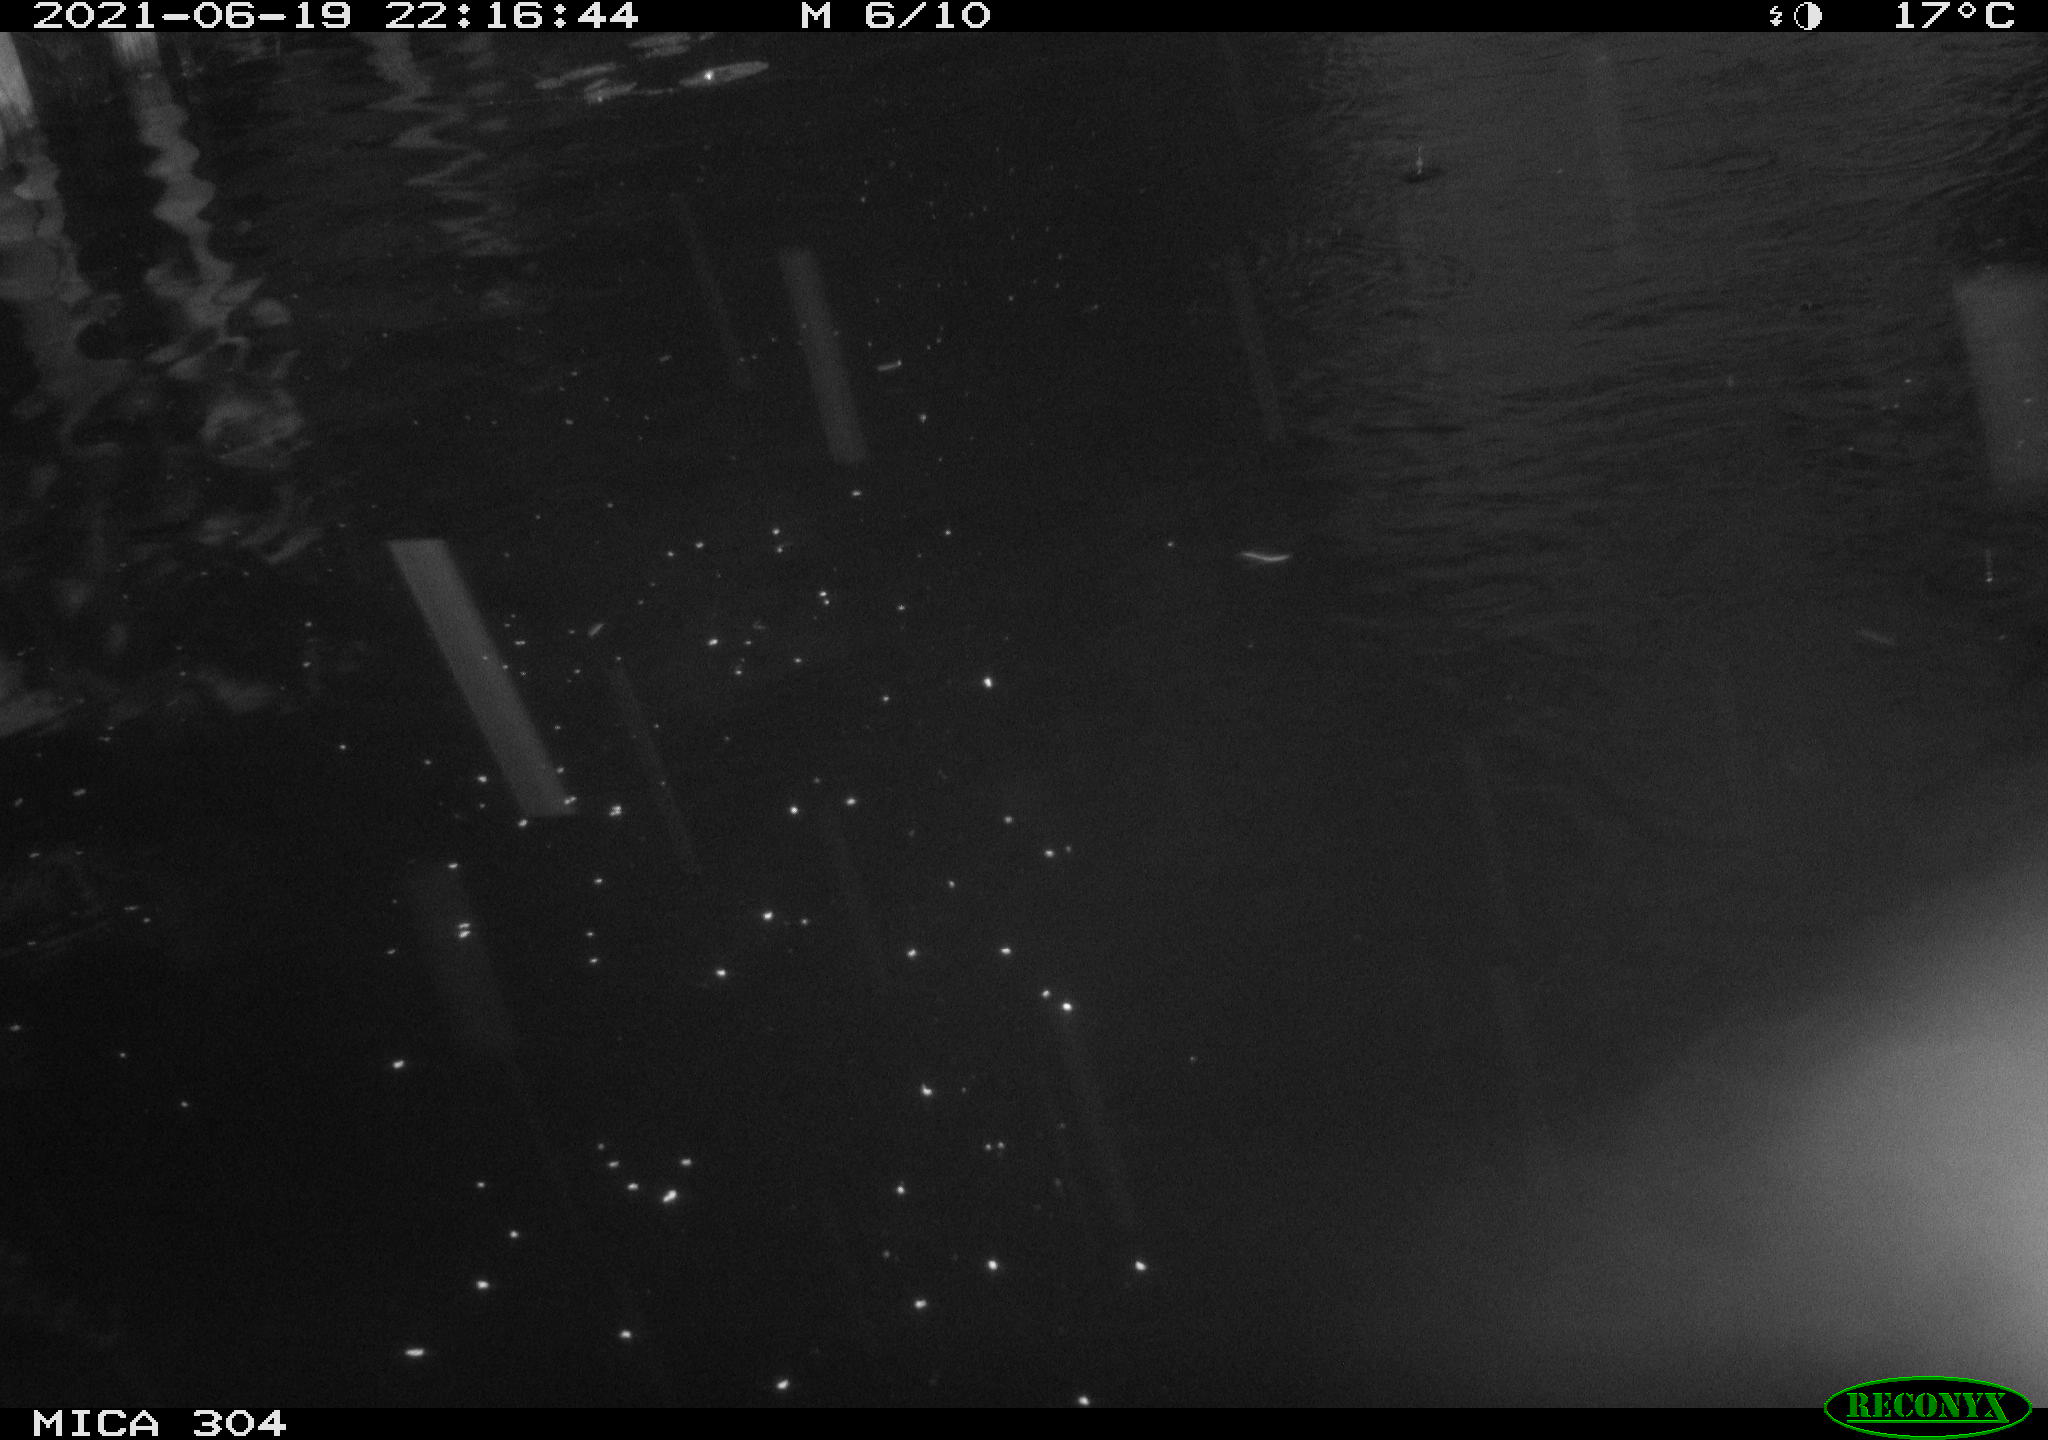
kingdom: Animalia
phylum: Chordata
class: Aves
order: Anseriformes
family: Anatidae
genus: Anas
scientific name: Anas platyrhynchos
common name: Mallard
